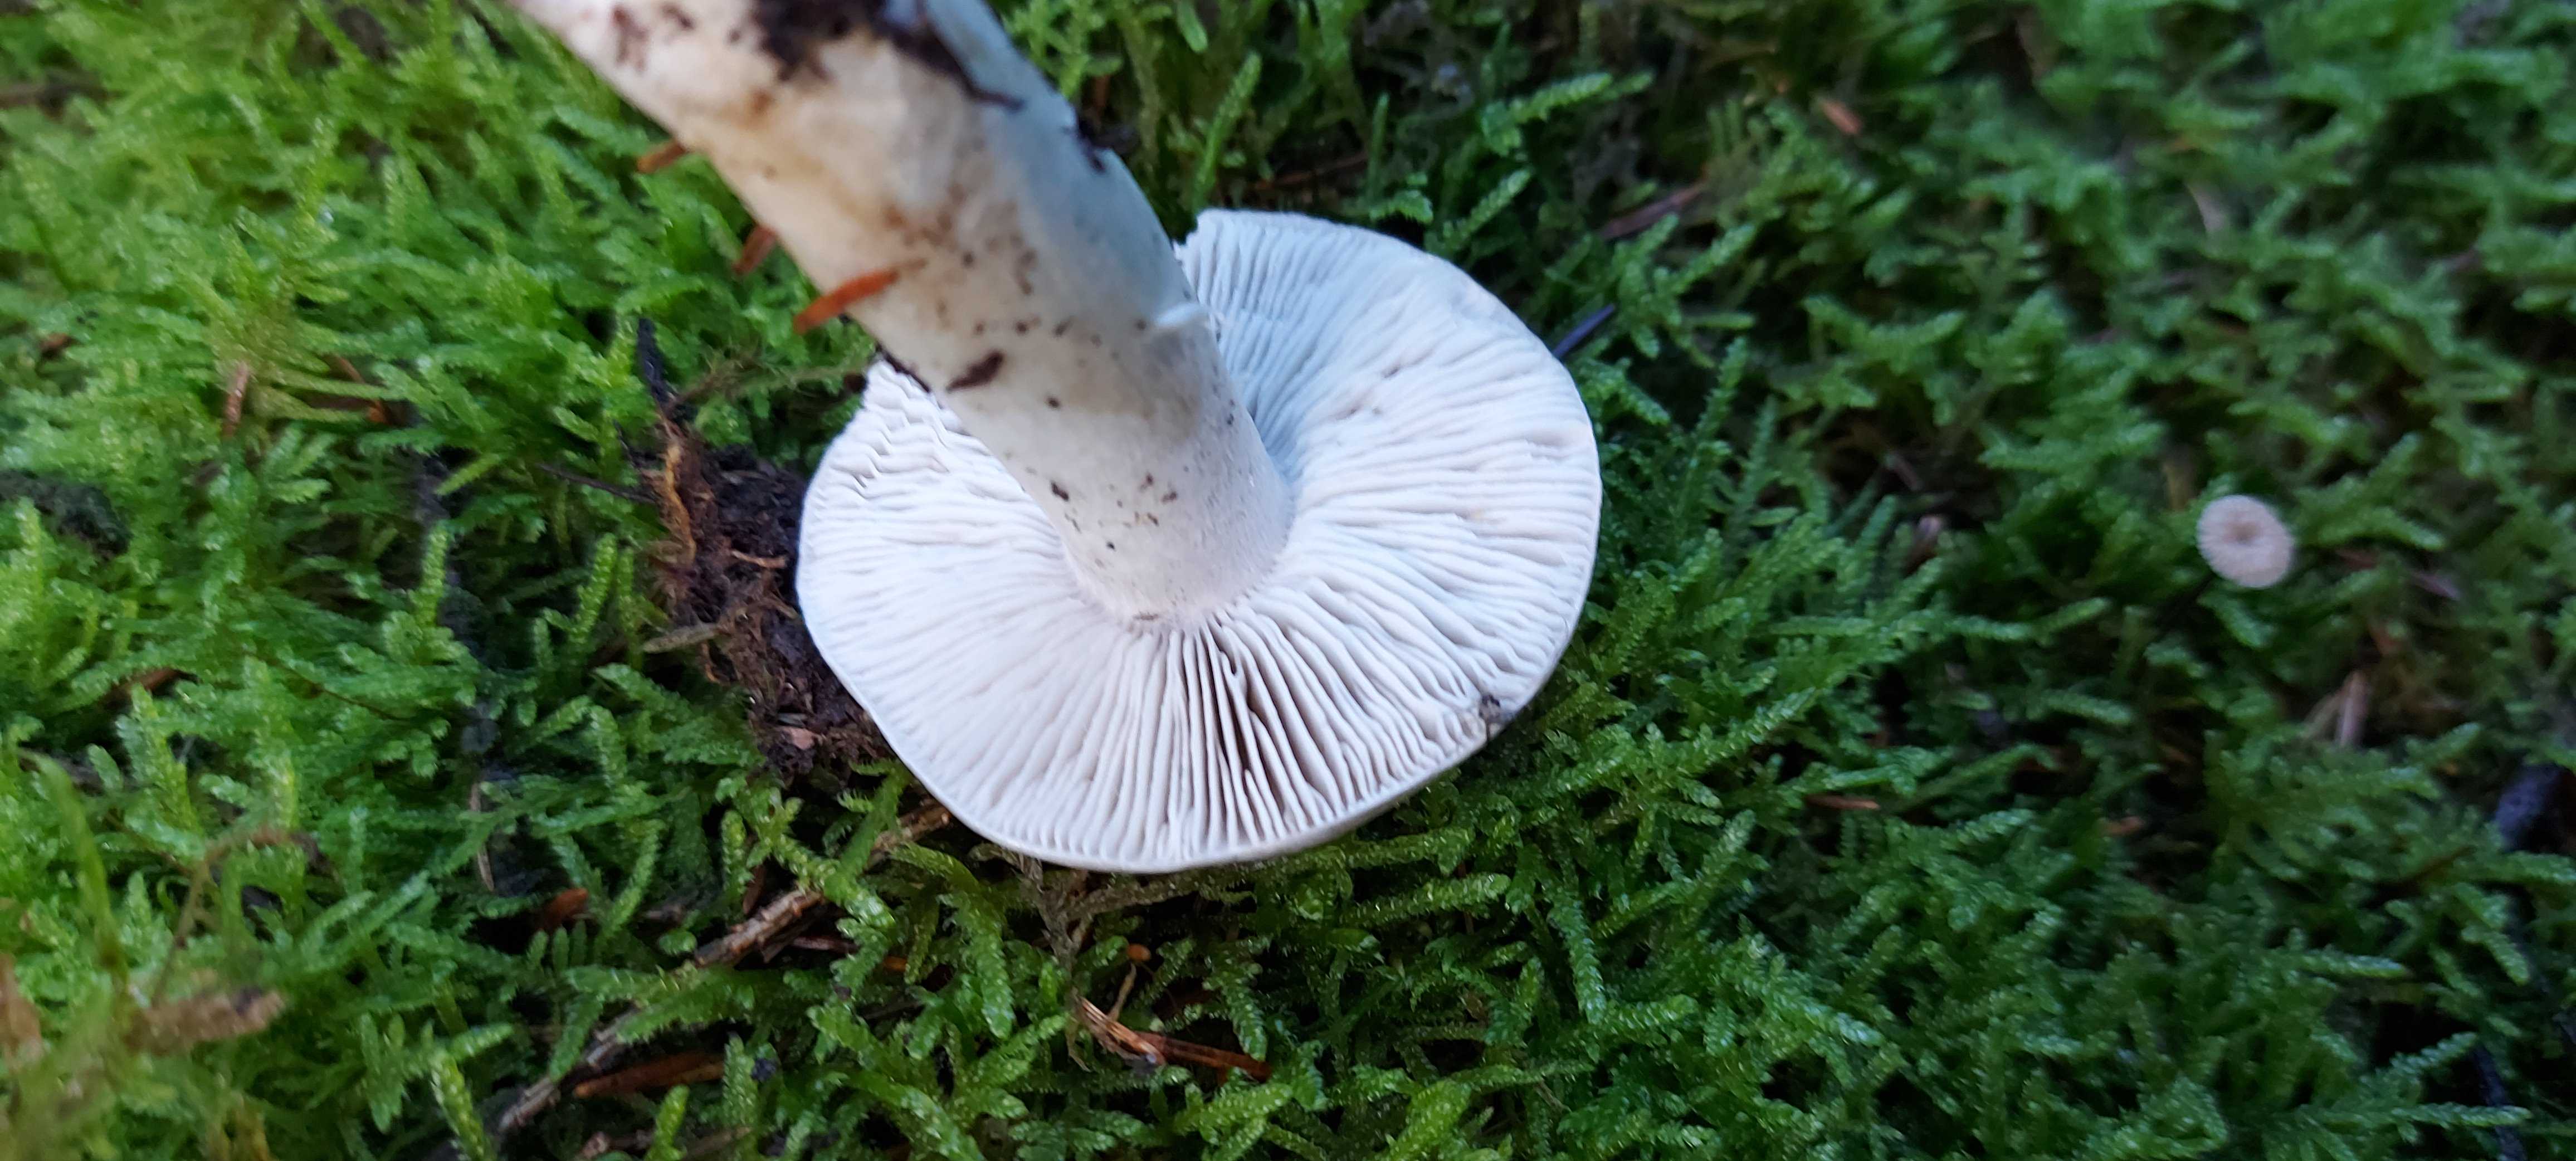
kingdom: Fungi
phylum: Basidiomycota
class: Agaricomycetes
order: Agaricales
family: Tricholomataceae
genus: Tricholoma
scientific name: Tricholoma
